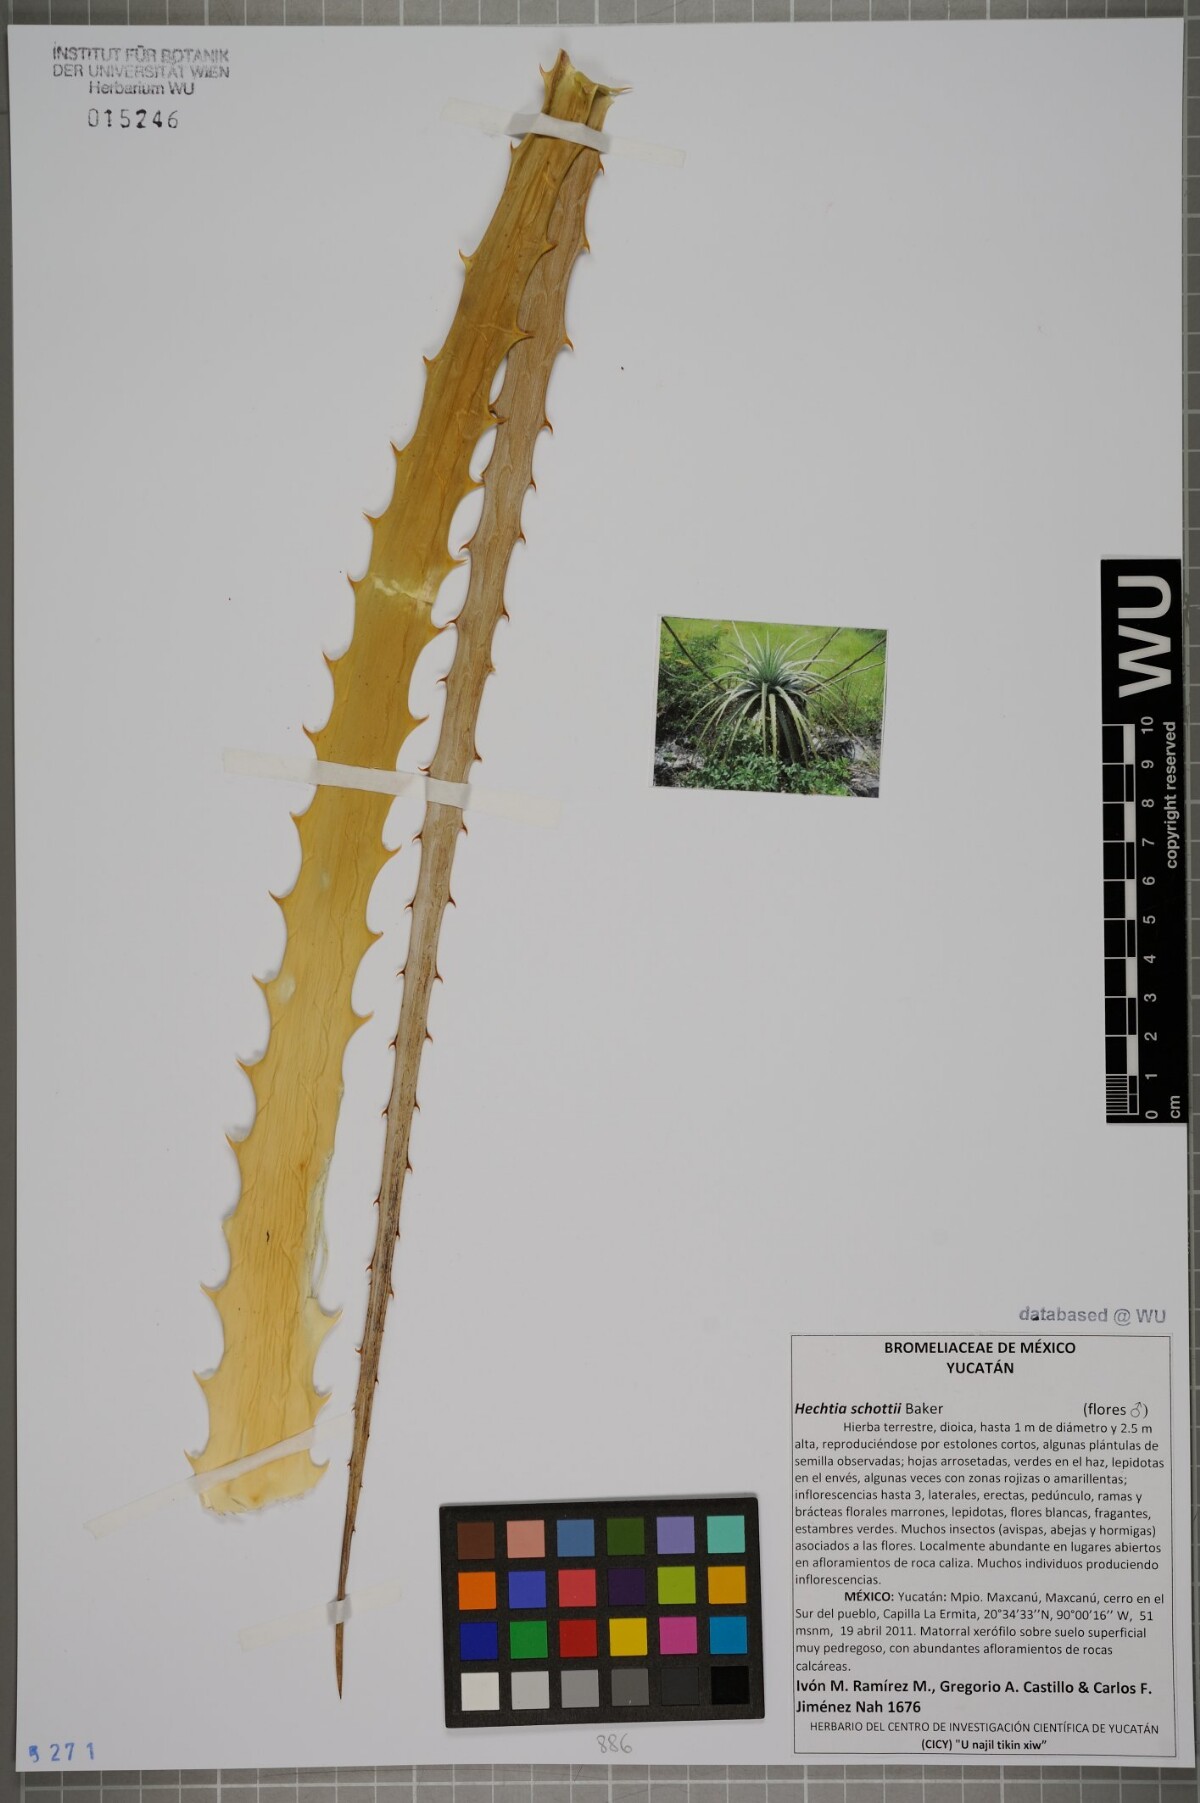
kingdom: Plantae
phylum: Tracheophyta
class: Liliopsida
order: Poales
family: Bromeliaceae
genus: Hechtia
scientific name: Hechtia schottii
